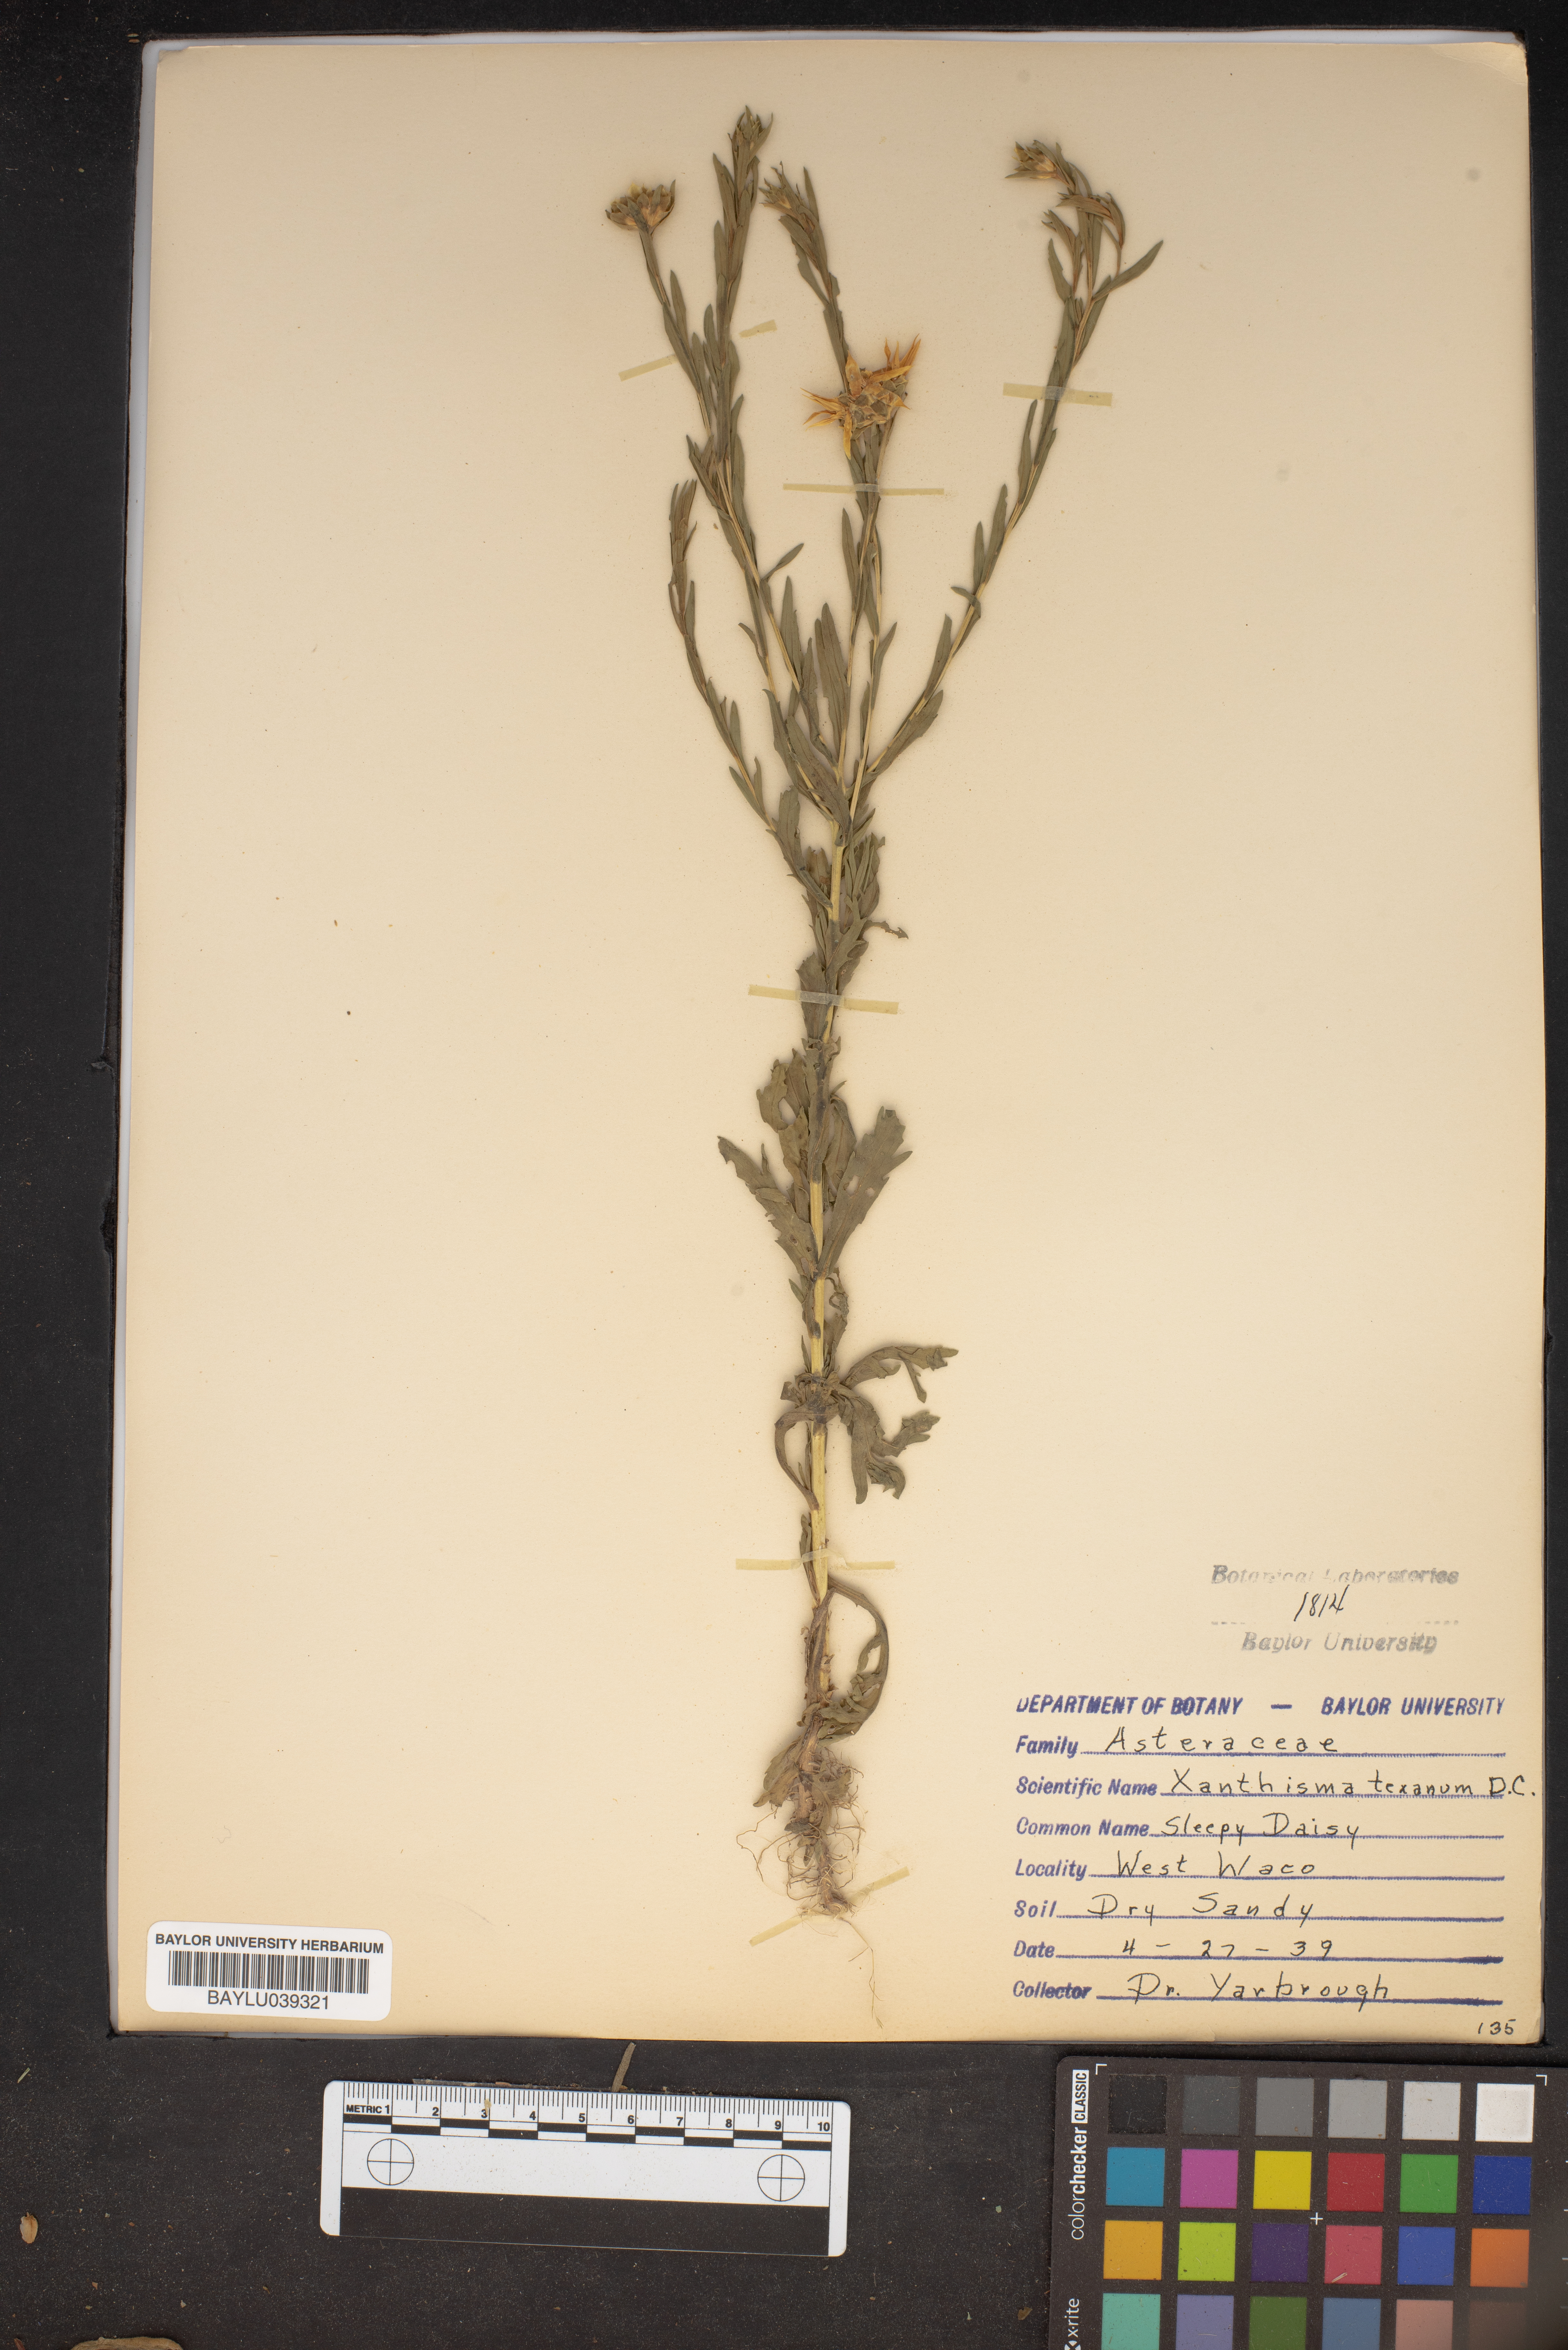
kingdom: Plantae
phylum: Tracheophyta
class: Magnoliopsida
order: Asterales
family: Asteraceae
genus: Xanthisma
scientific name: Xanthisma texanum
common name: Texas sleepy daisy
